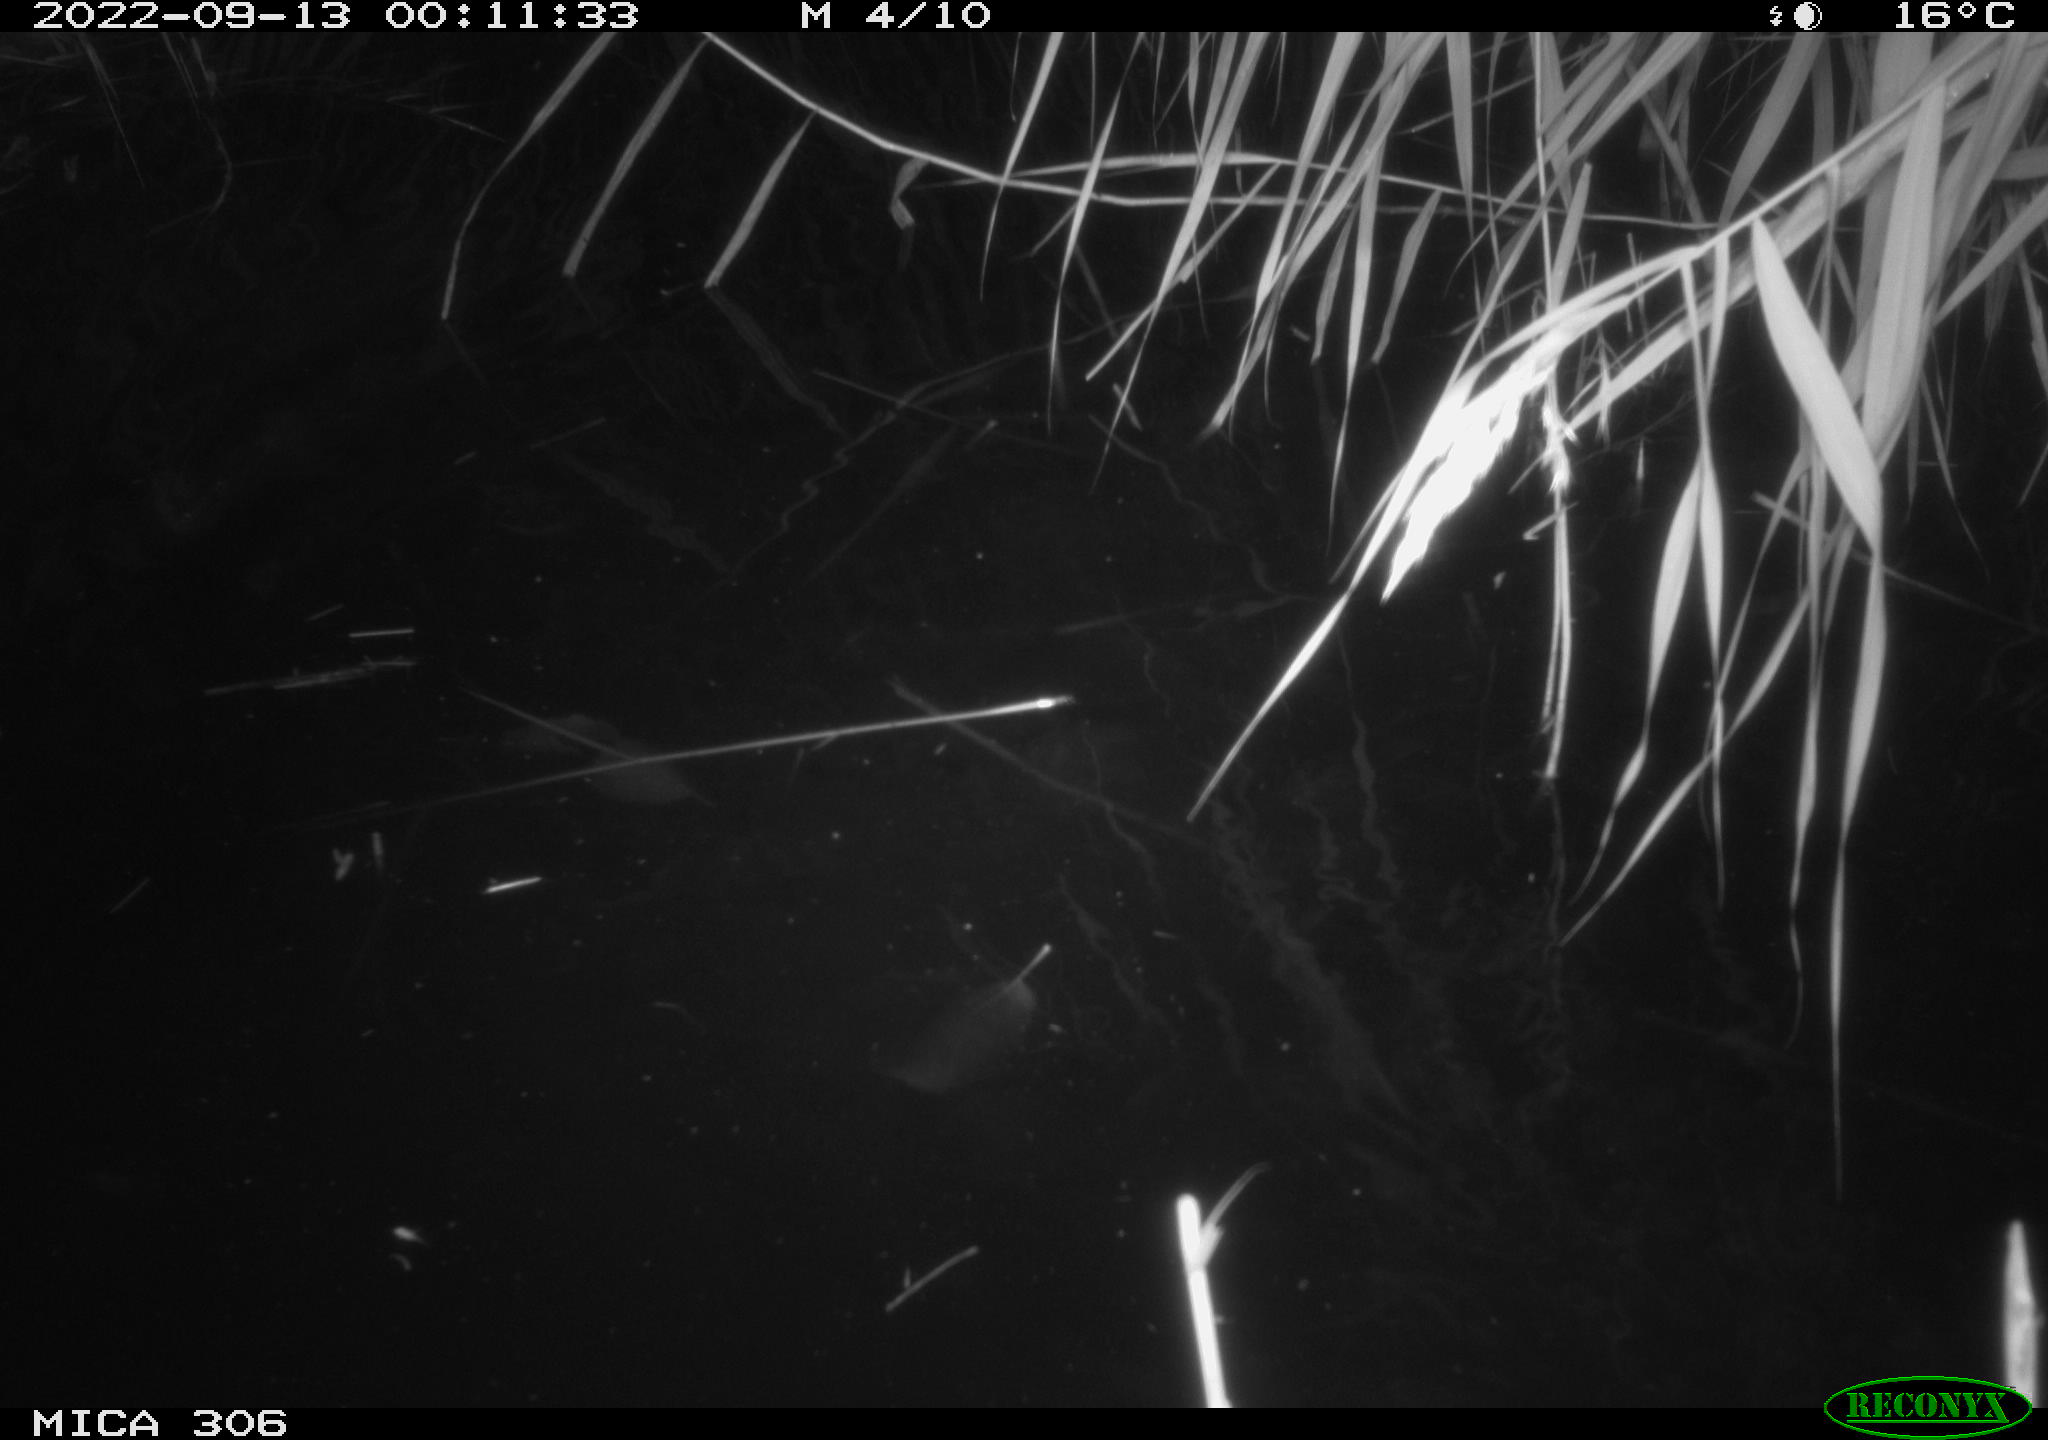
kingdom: Animalia
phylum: Chordata
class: Mammalia
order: Rodentia
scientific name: Rodentia
